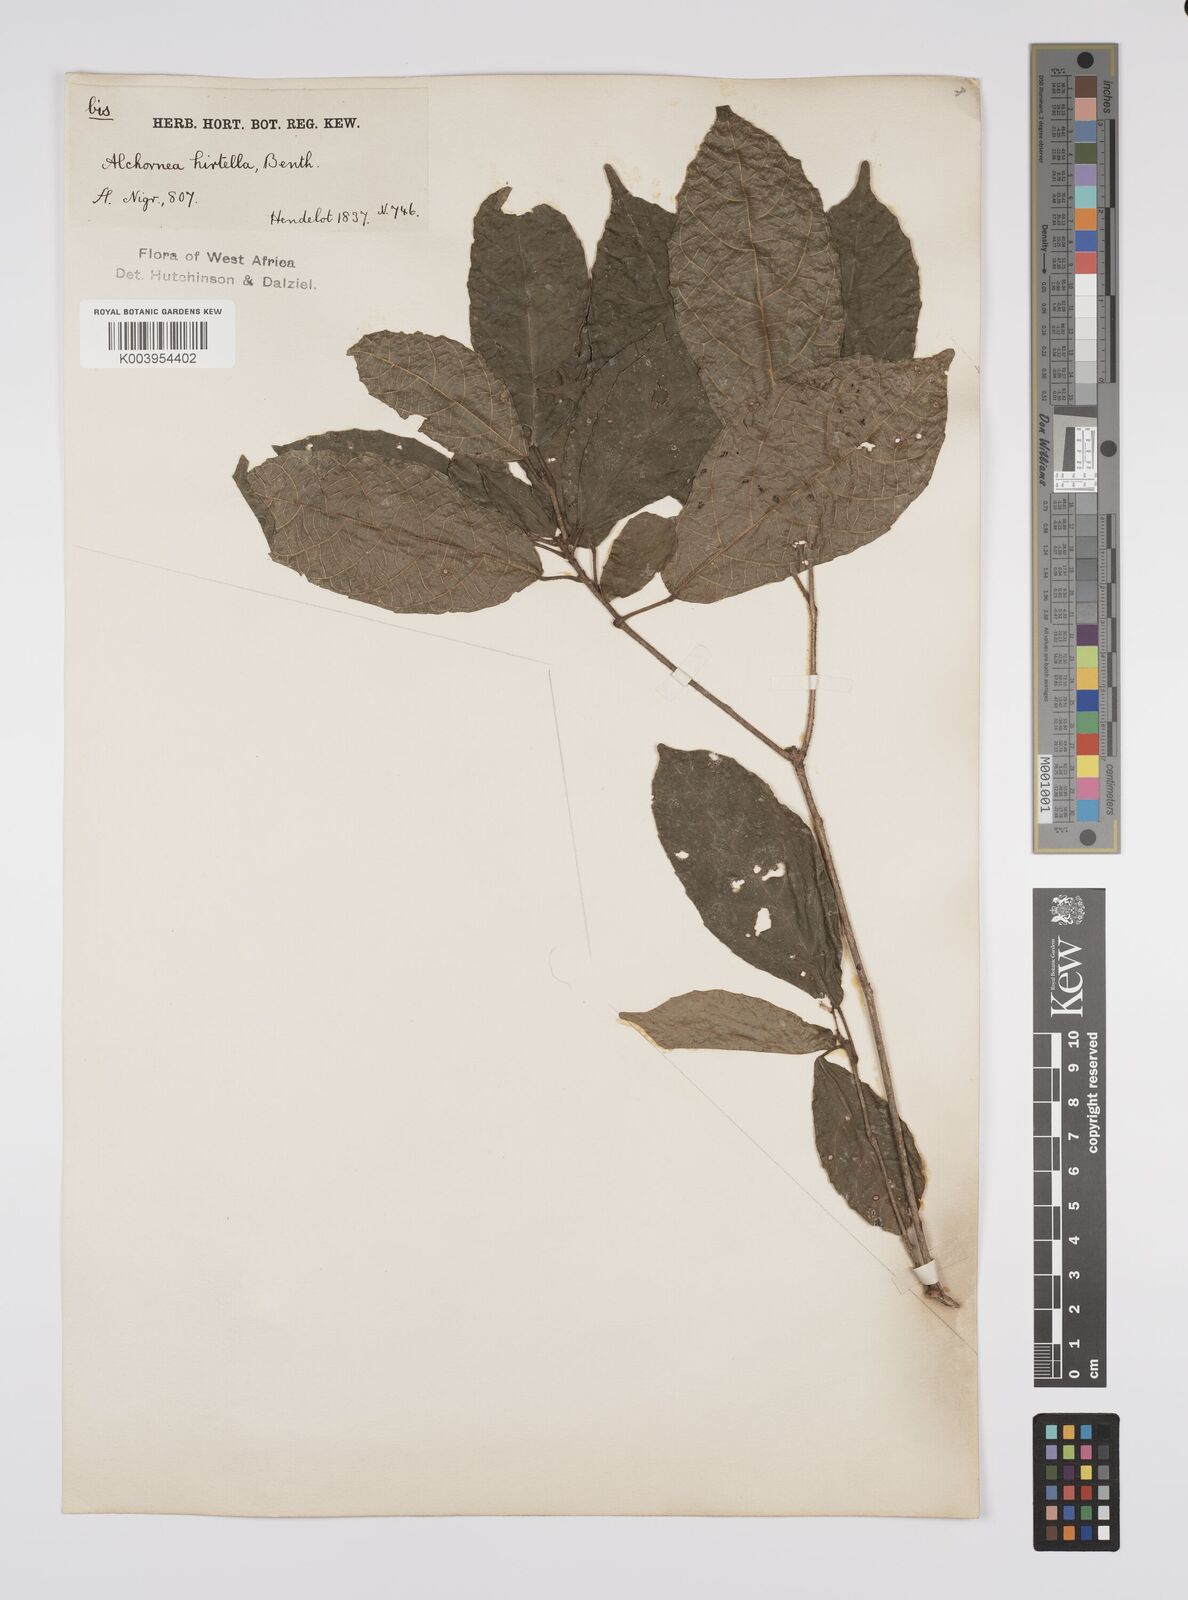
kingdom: Plantae
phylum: Tracheophyta
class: Magnoliopsida
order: Malpighiales
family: Euphorbiaceae
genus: Alchornea
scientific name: Alchornea hirtella
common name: Forest bead-string
